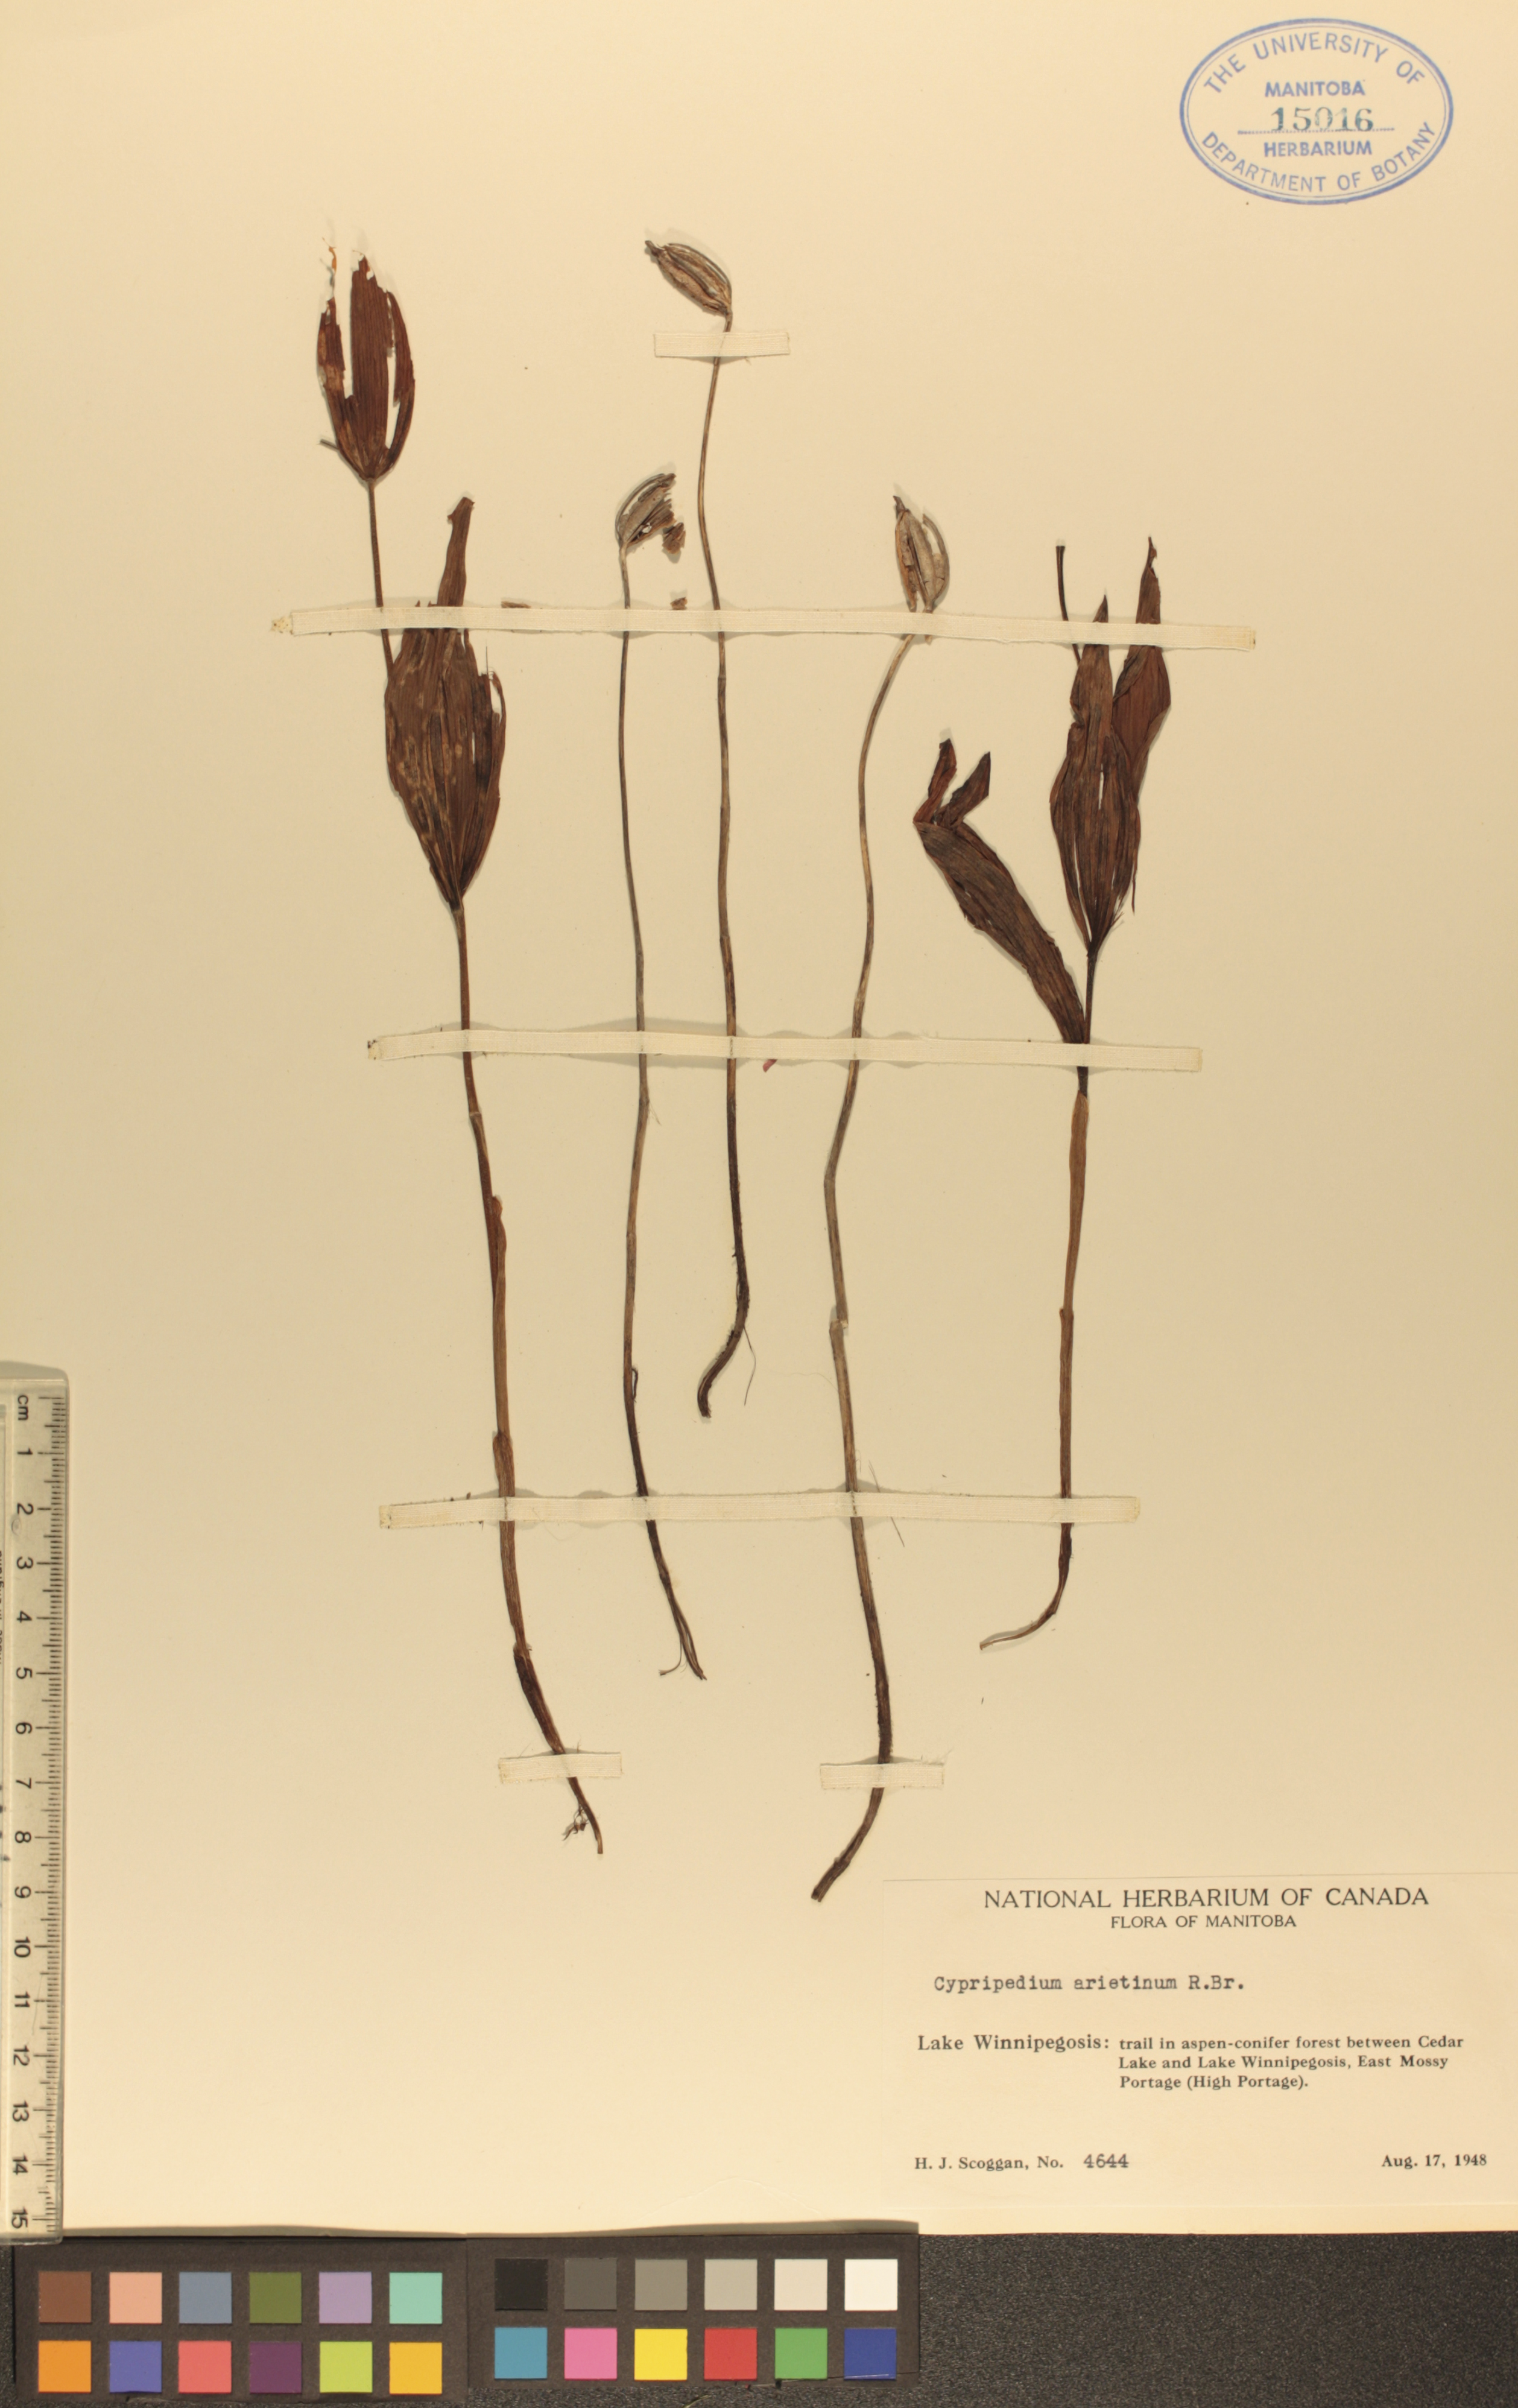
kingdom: Plantae
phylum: Tracheophyta
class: Liliopsida
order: Asparagales
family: Orchidaceae
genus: Cypripedium
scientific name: Cypripedium arietinum
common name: Ram's-head
